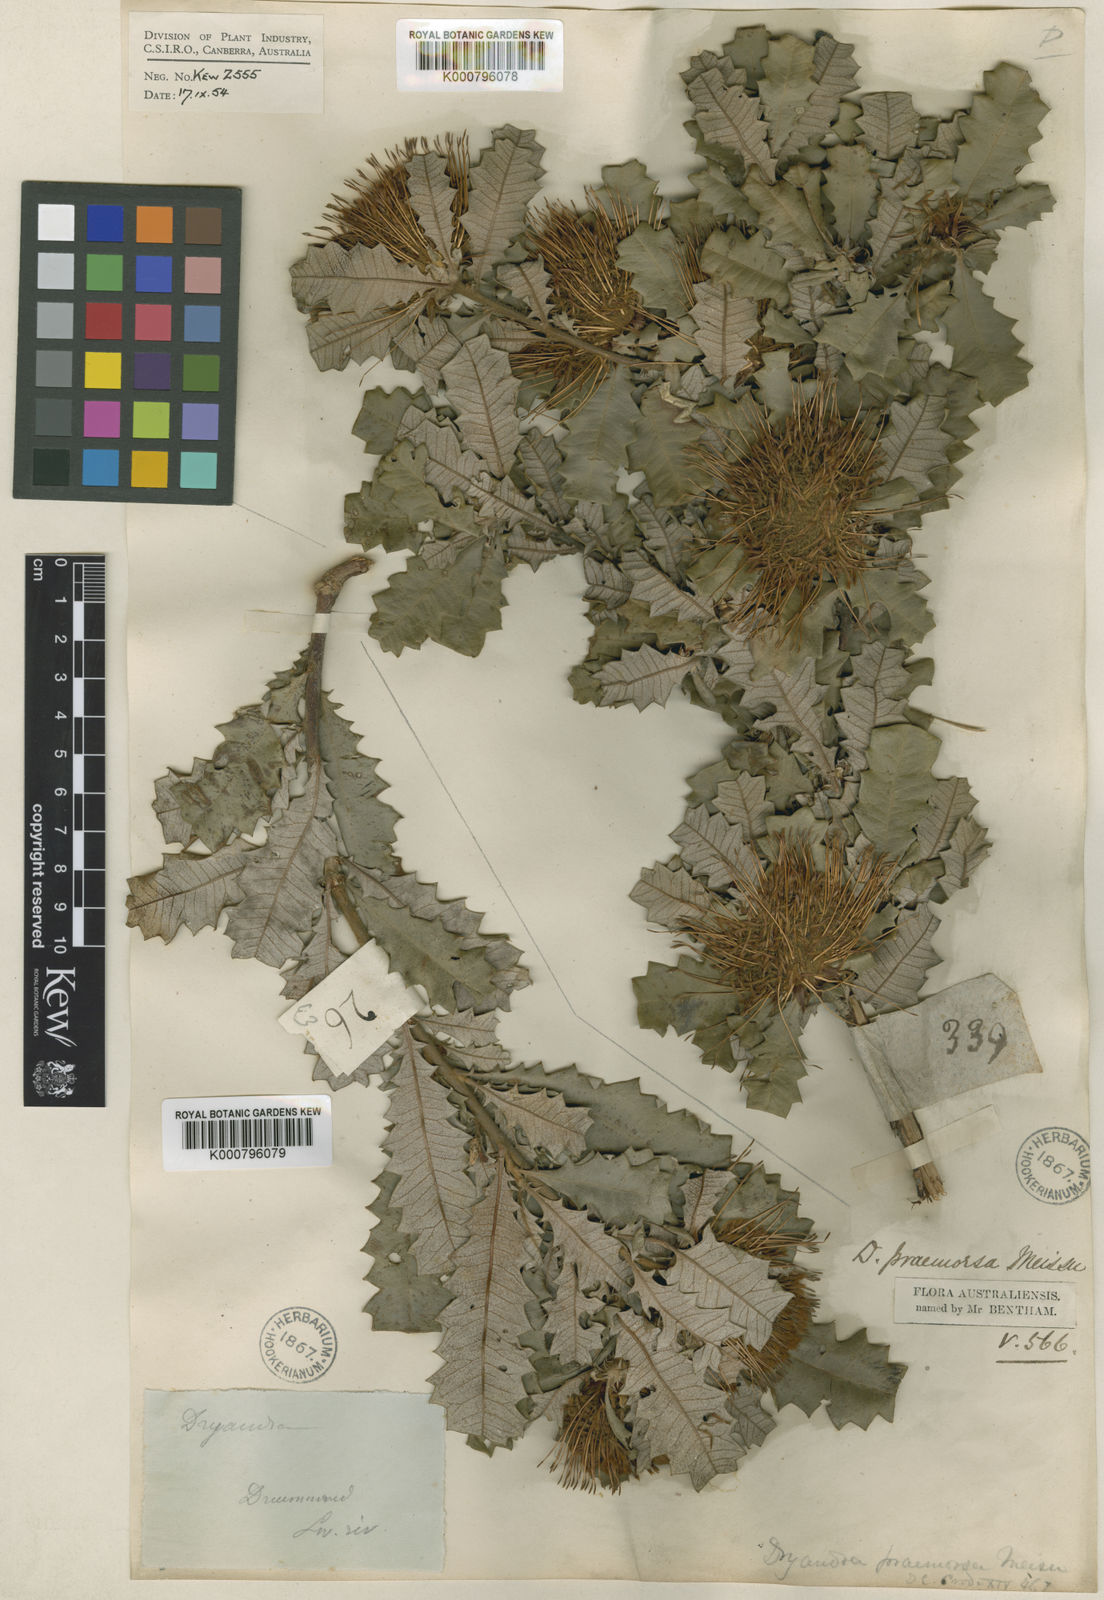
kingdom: Plantae
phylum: Tracheophyta
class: Magnoliopsida
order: Proteales
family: Proteaceae
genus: Banksia
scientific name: Banksia undata
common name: Cut-leaf dryandra
